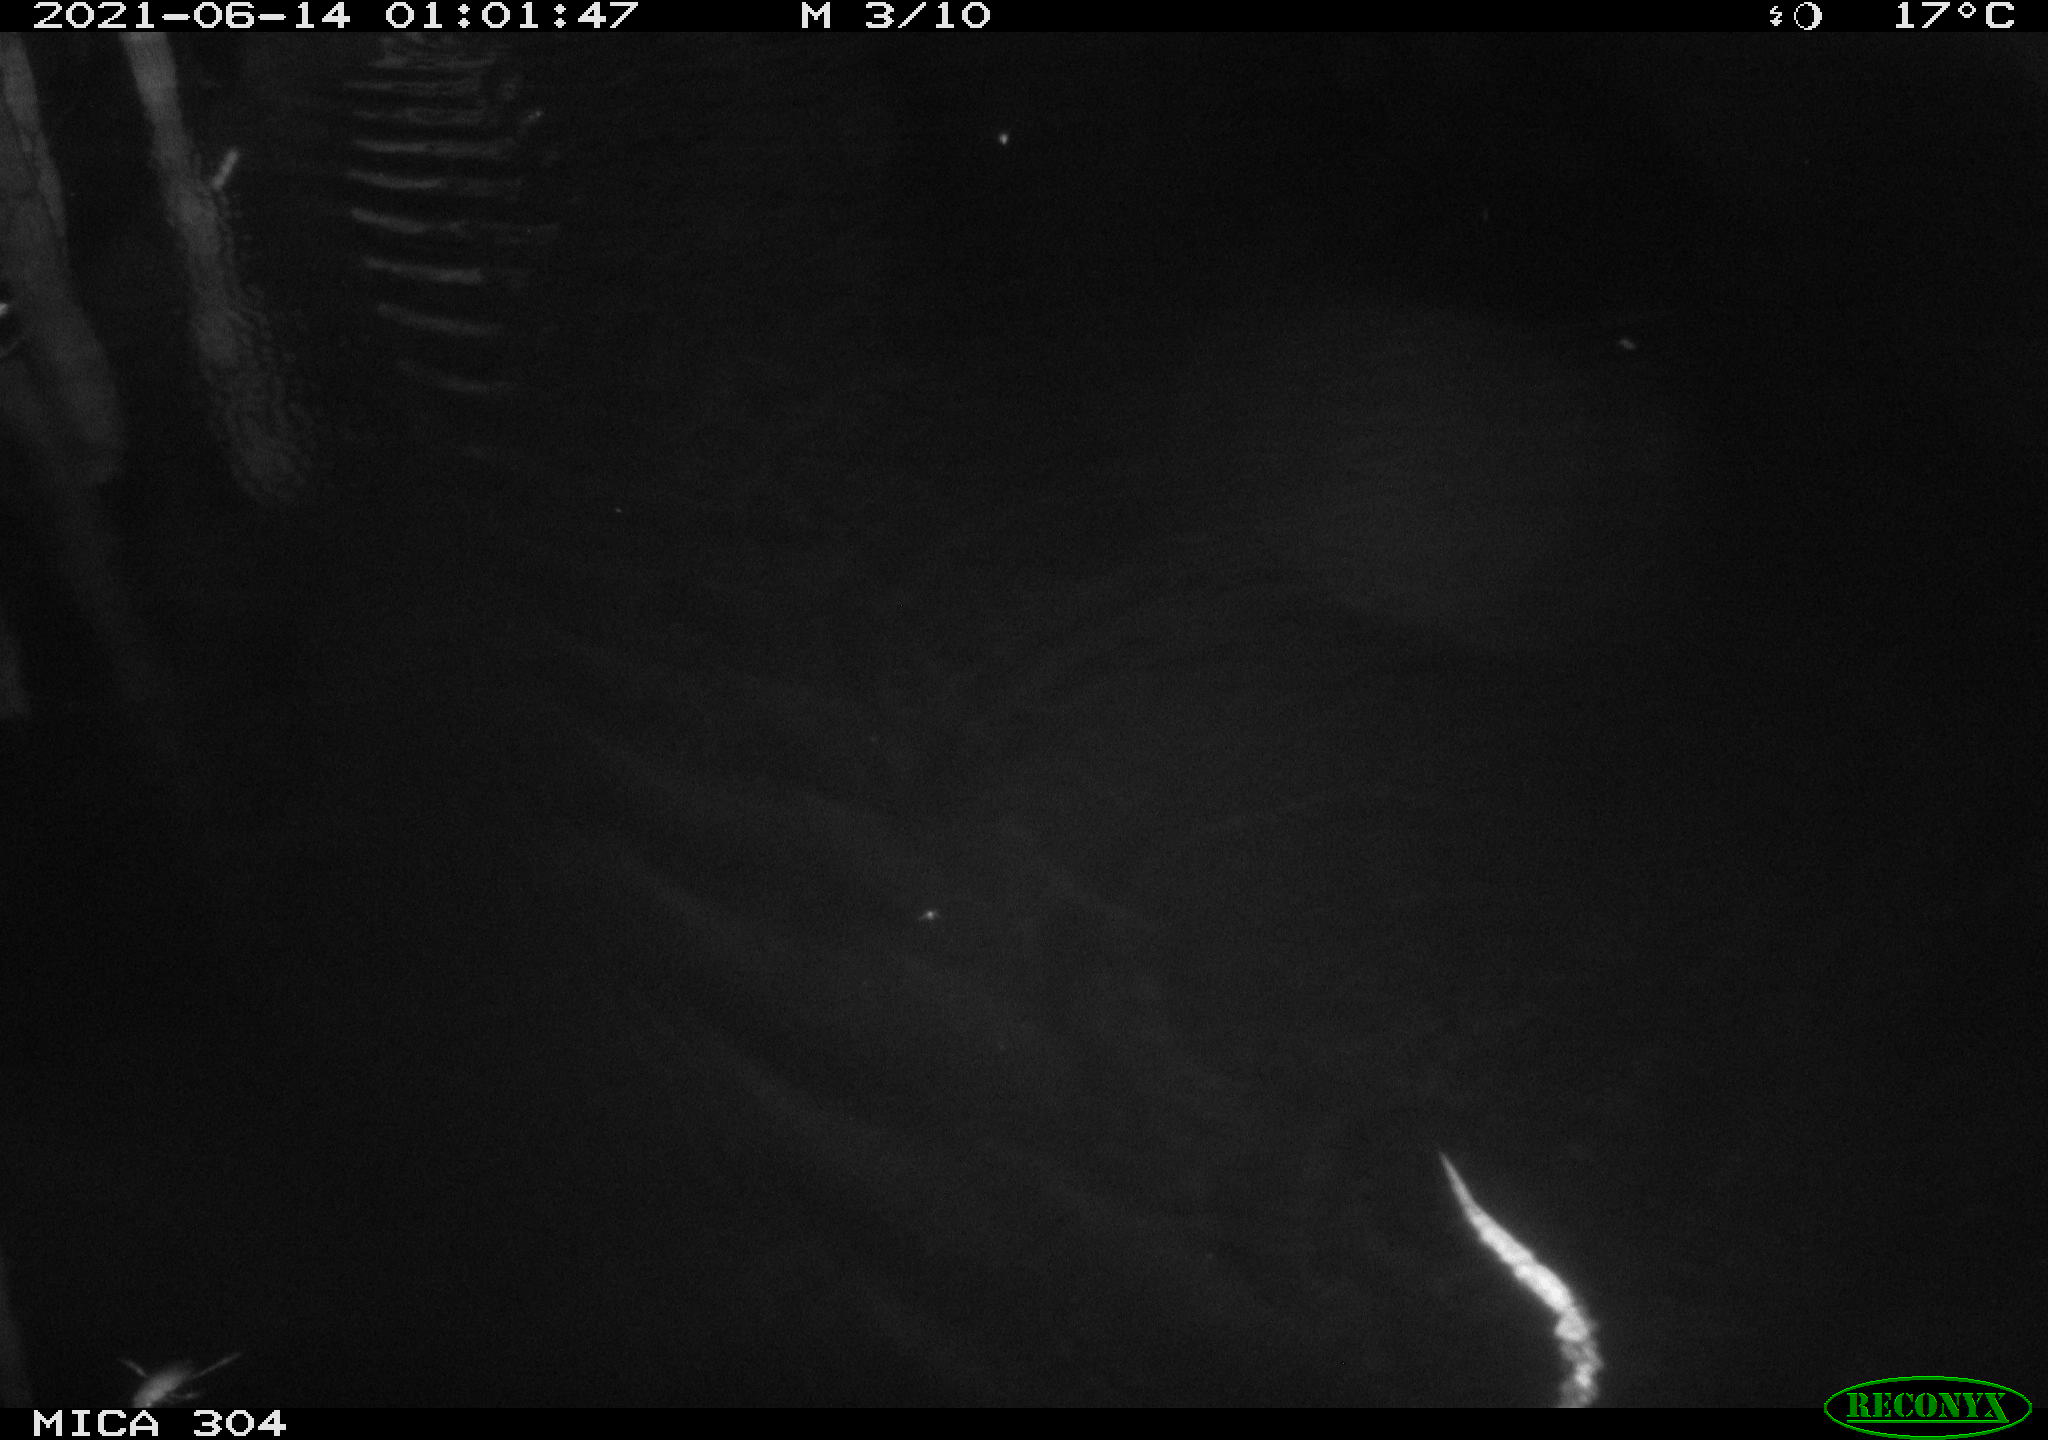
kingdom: Animalia
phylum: Chordata
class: Mammalia
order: Rodentia
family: Cricetidae
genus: Ondatra
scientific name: Ondatra zibethicus
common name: Muskrat
